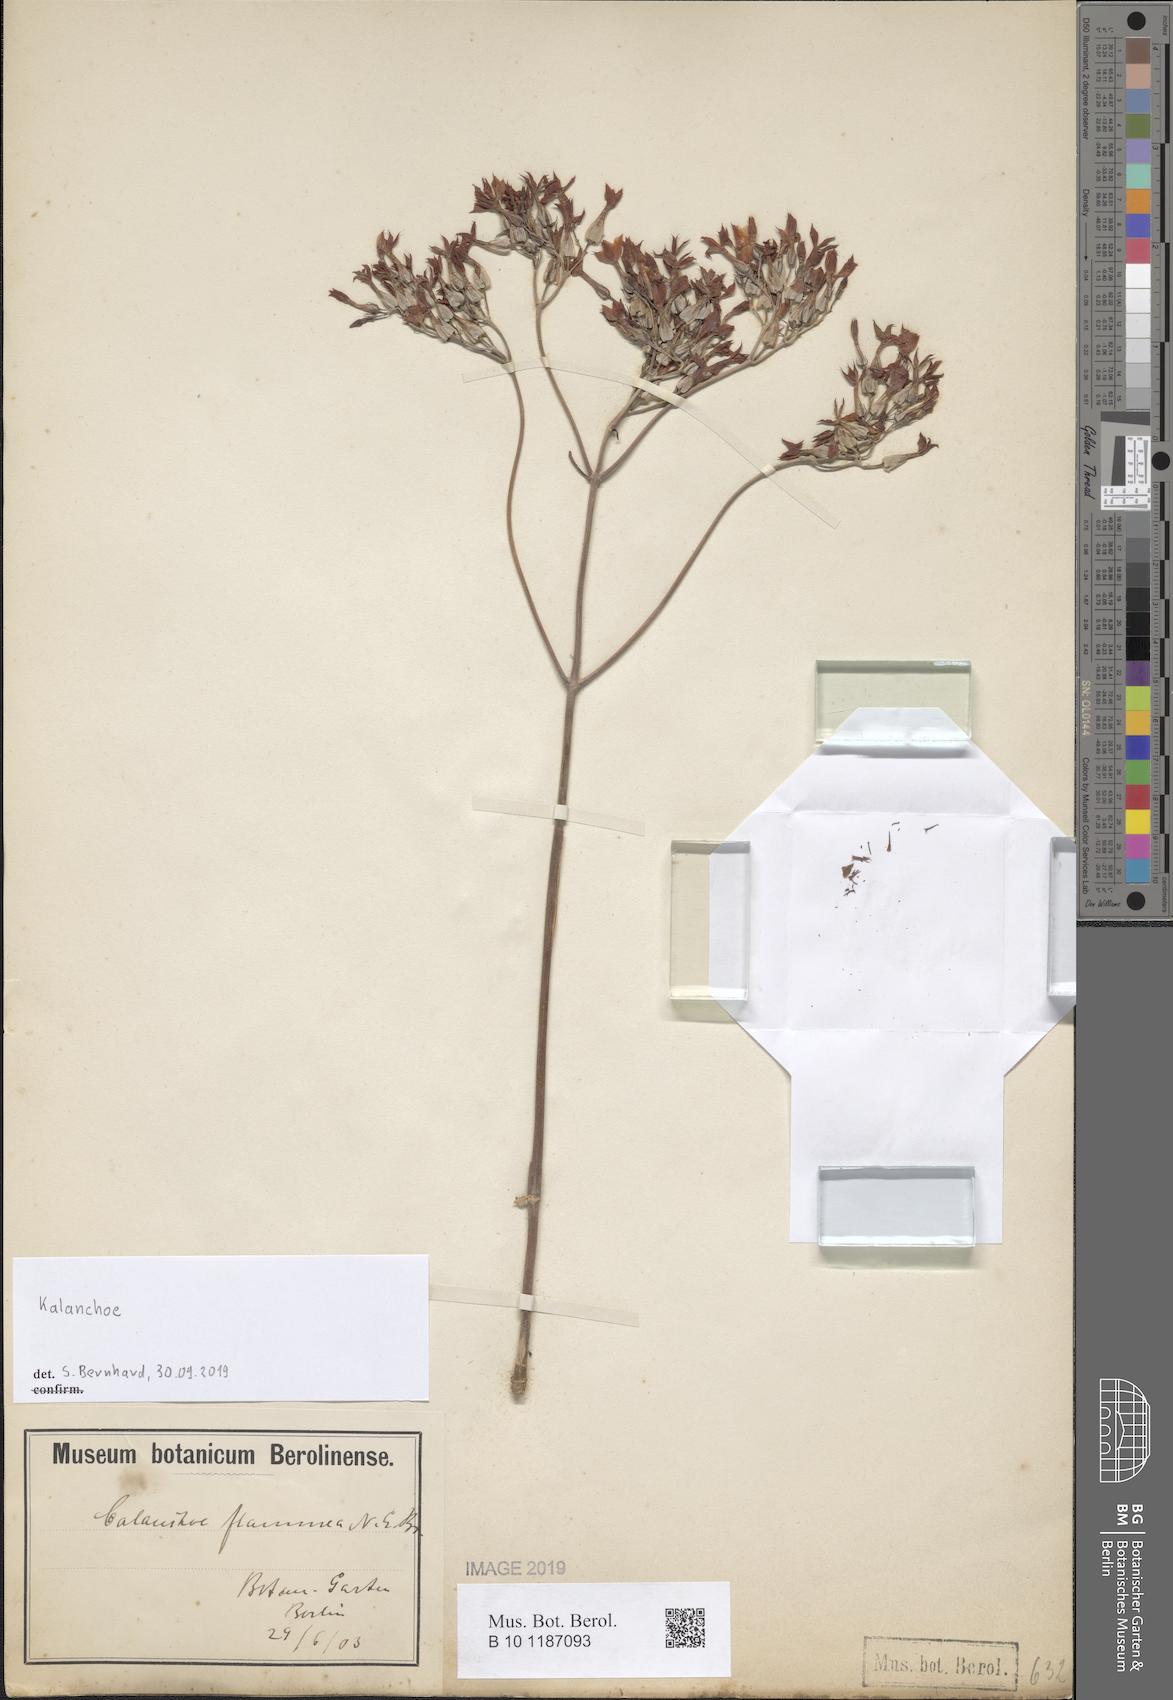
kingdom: Plantae
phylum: Tracheophyta
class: Magnoliopsida
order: Saxifragales
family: Crassulaceae
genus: Kalanchoe
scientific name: Kalanchoe
